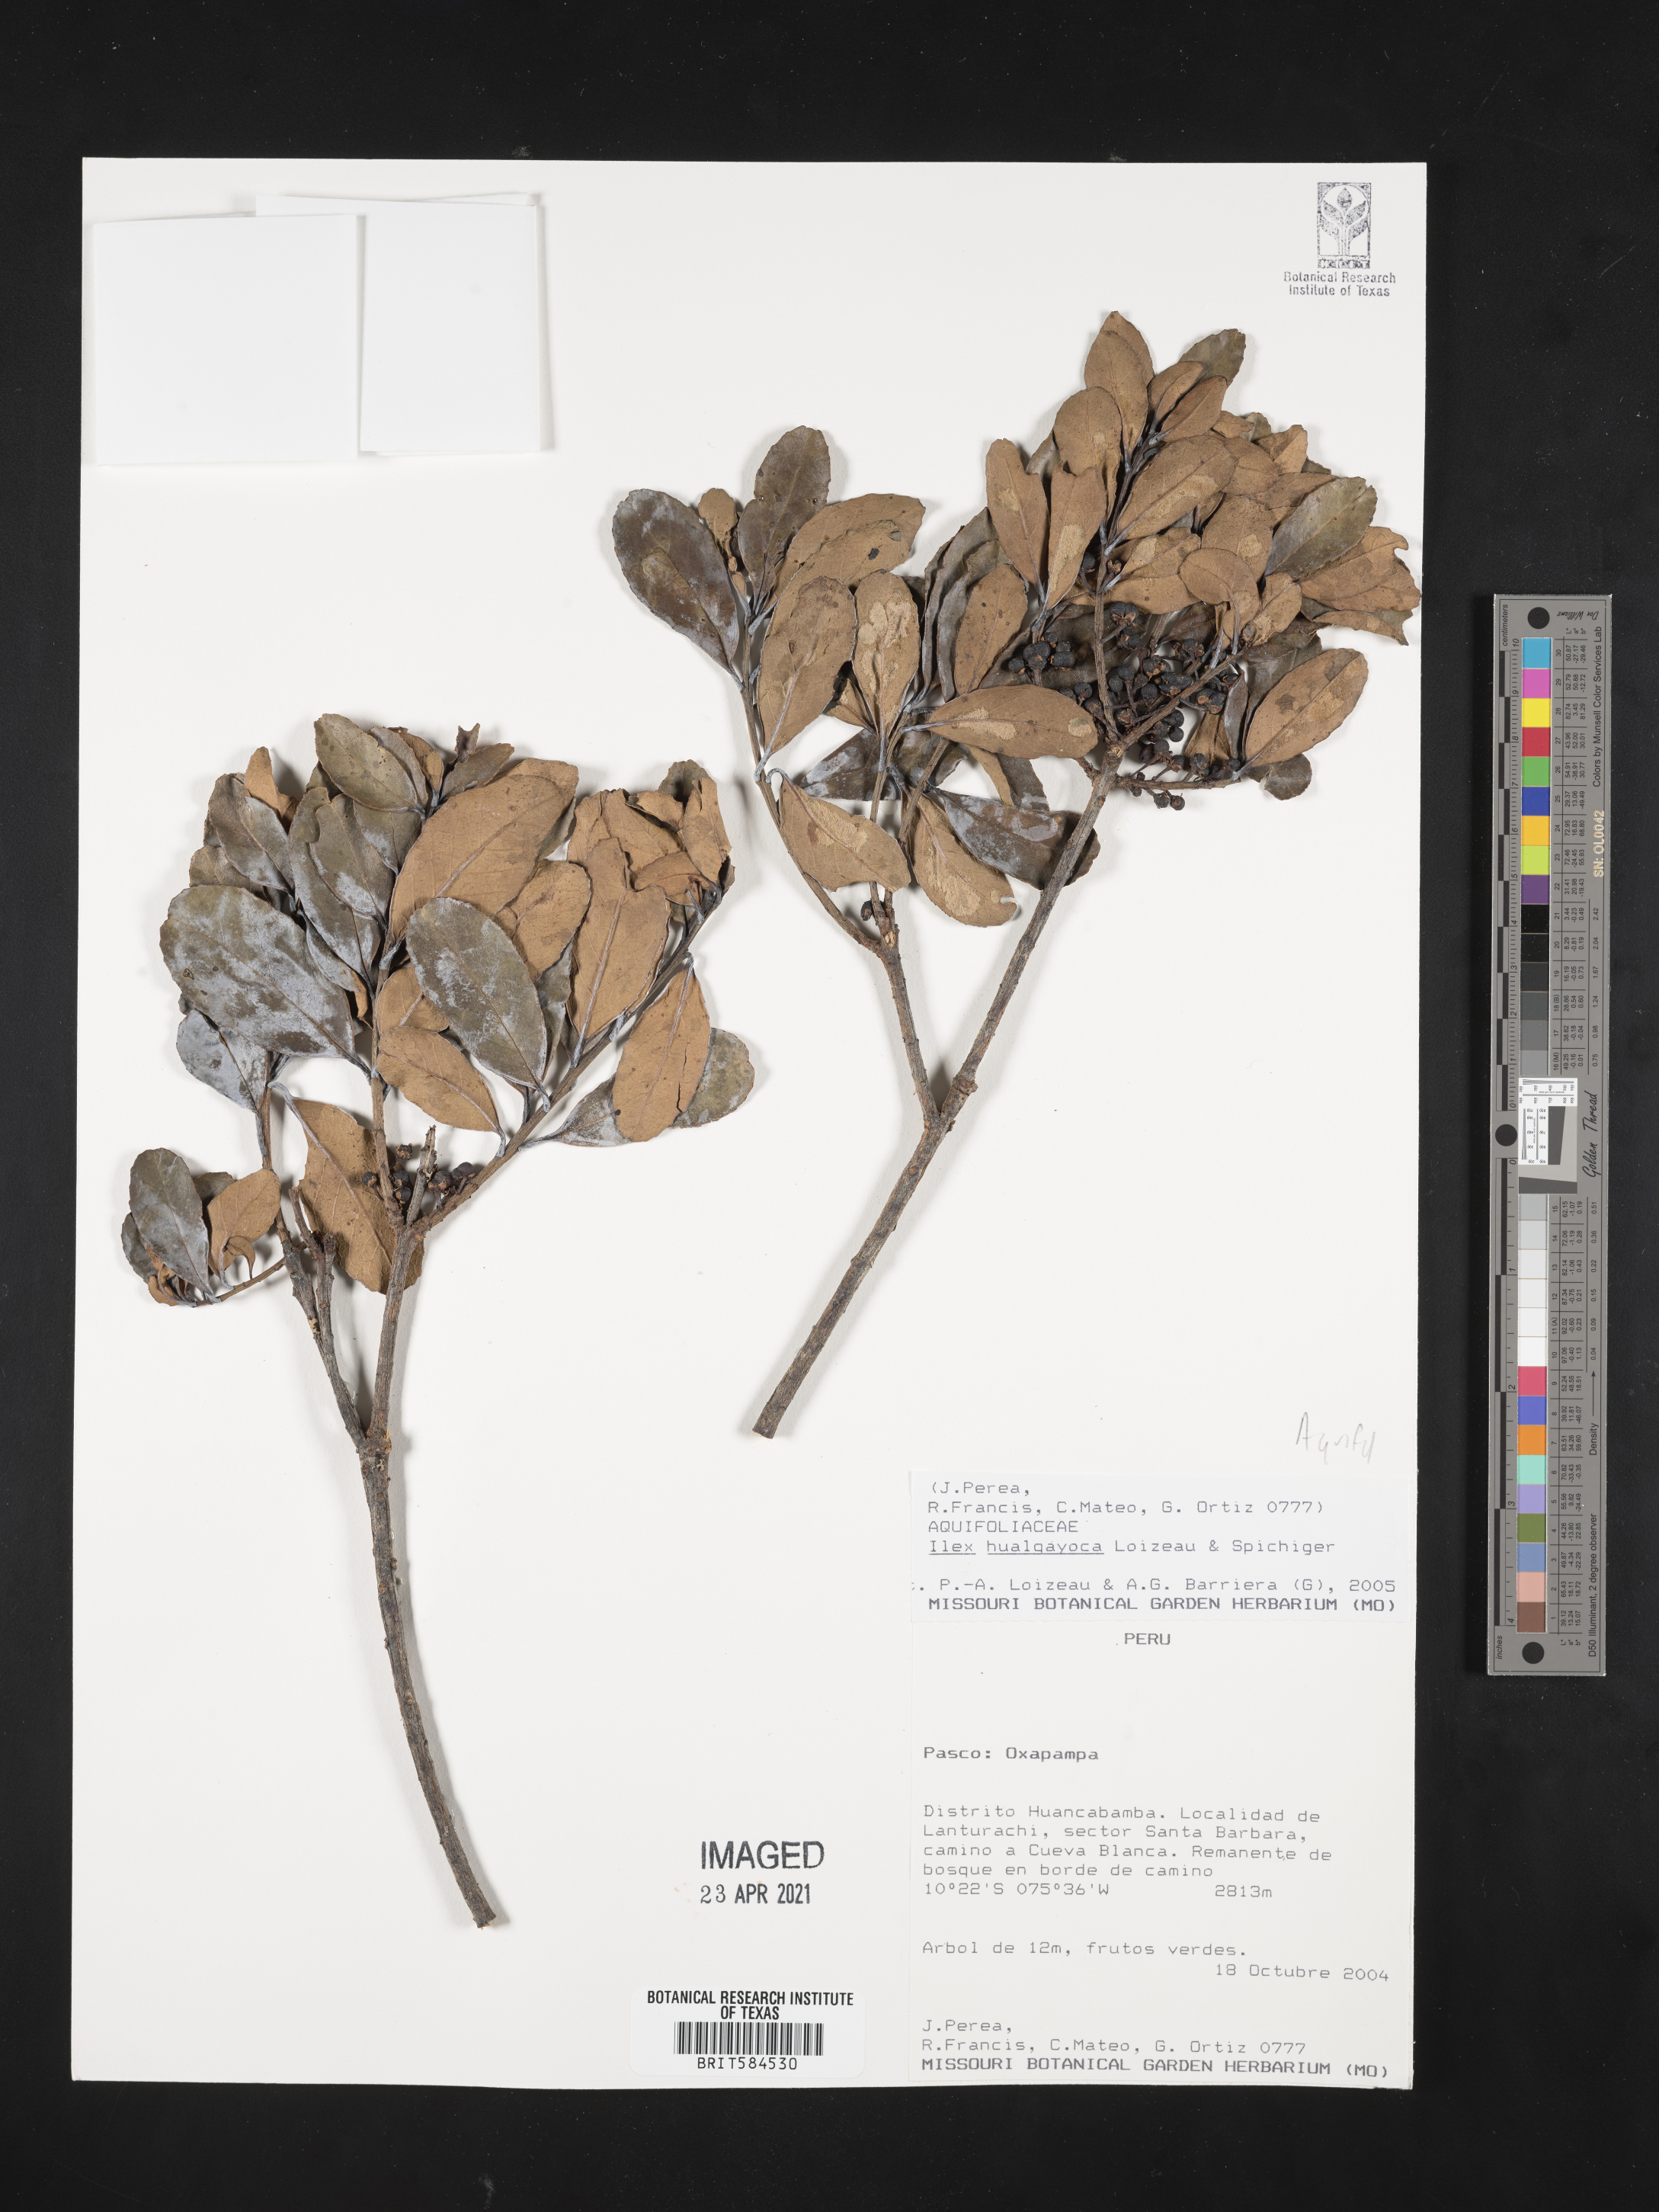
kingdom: Plantae
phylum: Tracheophyta
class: Magnoliopsida
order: Aquifoliales
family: Aquifoliaceae
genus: Ilex
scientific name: Ilex hualgayoca
